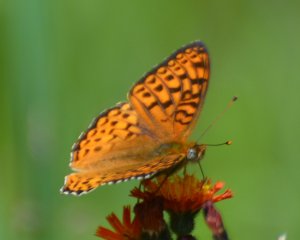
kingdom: Animalia
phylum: Arthropoda
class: Insecta
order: Lepidoptera
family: Nymphalidae
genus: Speyeria
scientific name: Speyeria atlantis
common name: Atlantis Fritillary
